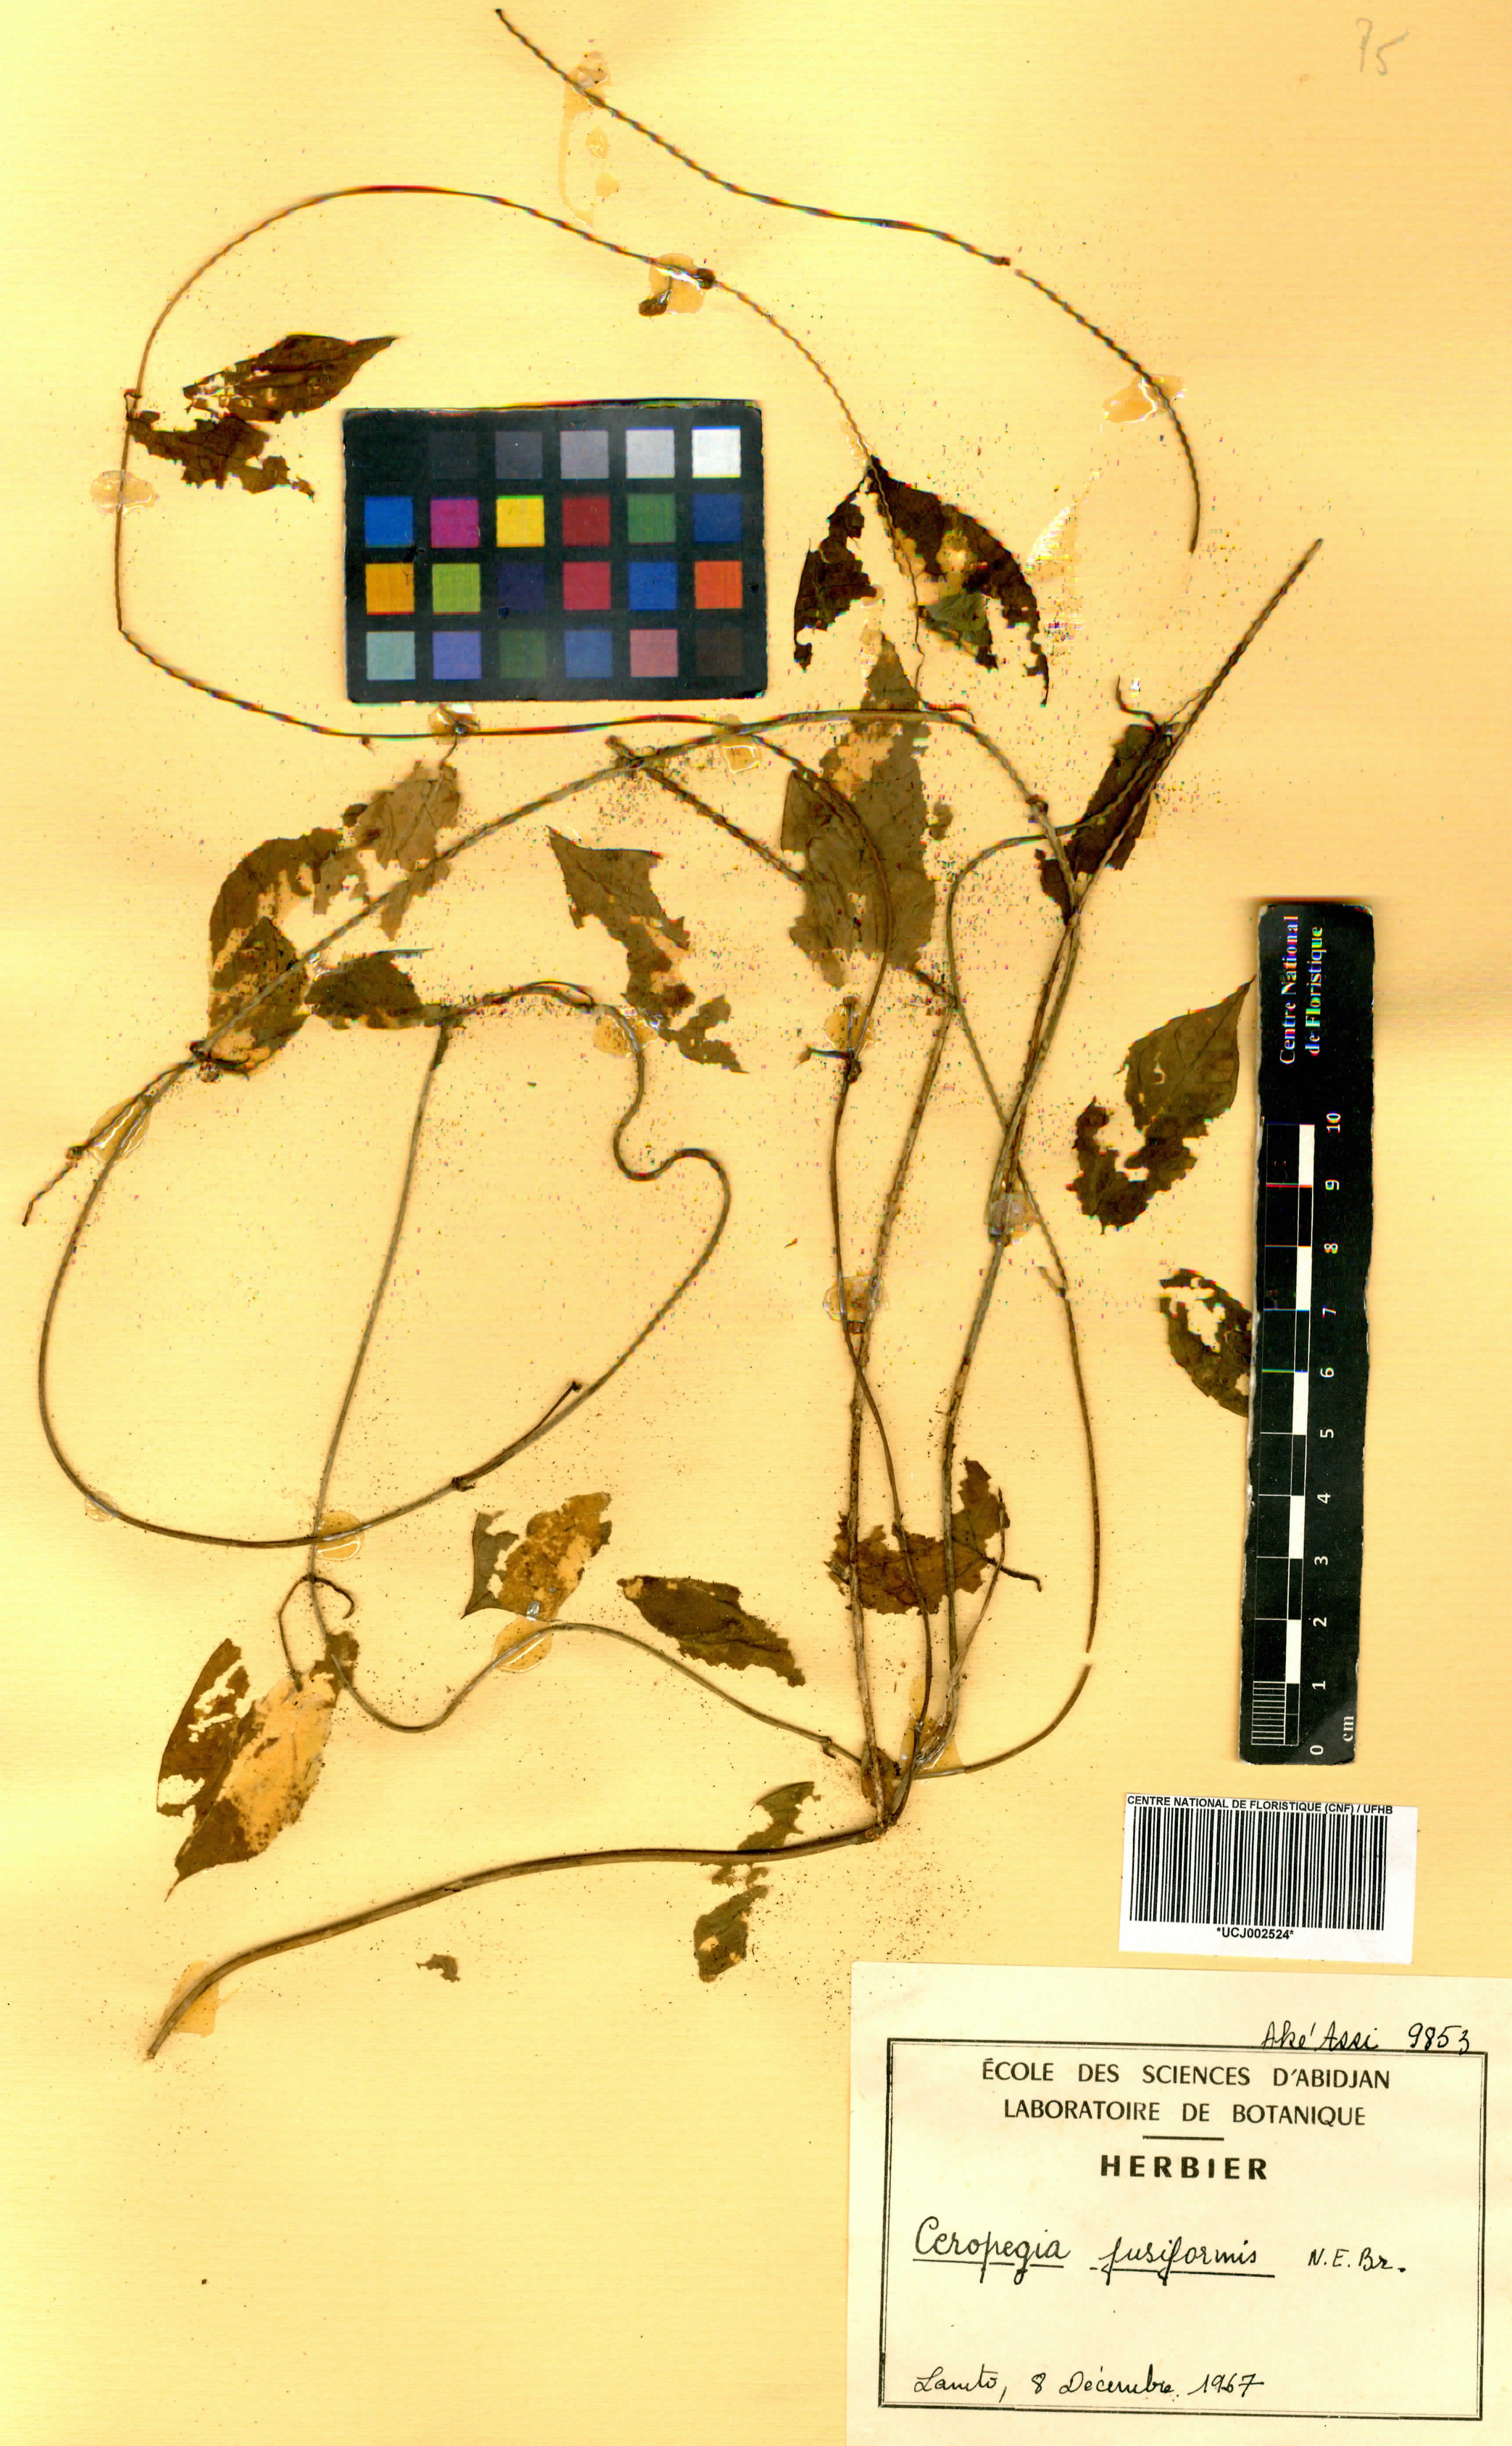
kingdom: Plantae
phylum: Tracheophyta
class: Magnoliopsida
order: Gentianales
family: Apocynaceae
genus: Ceropegia
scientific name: Ceropegia fusiformis
